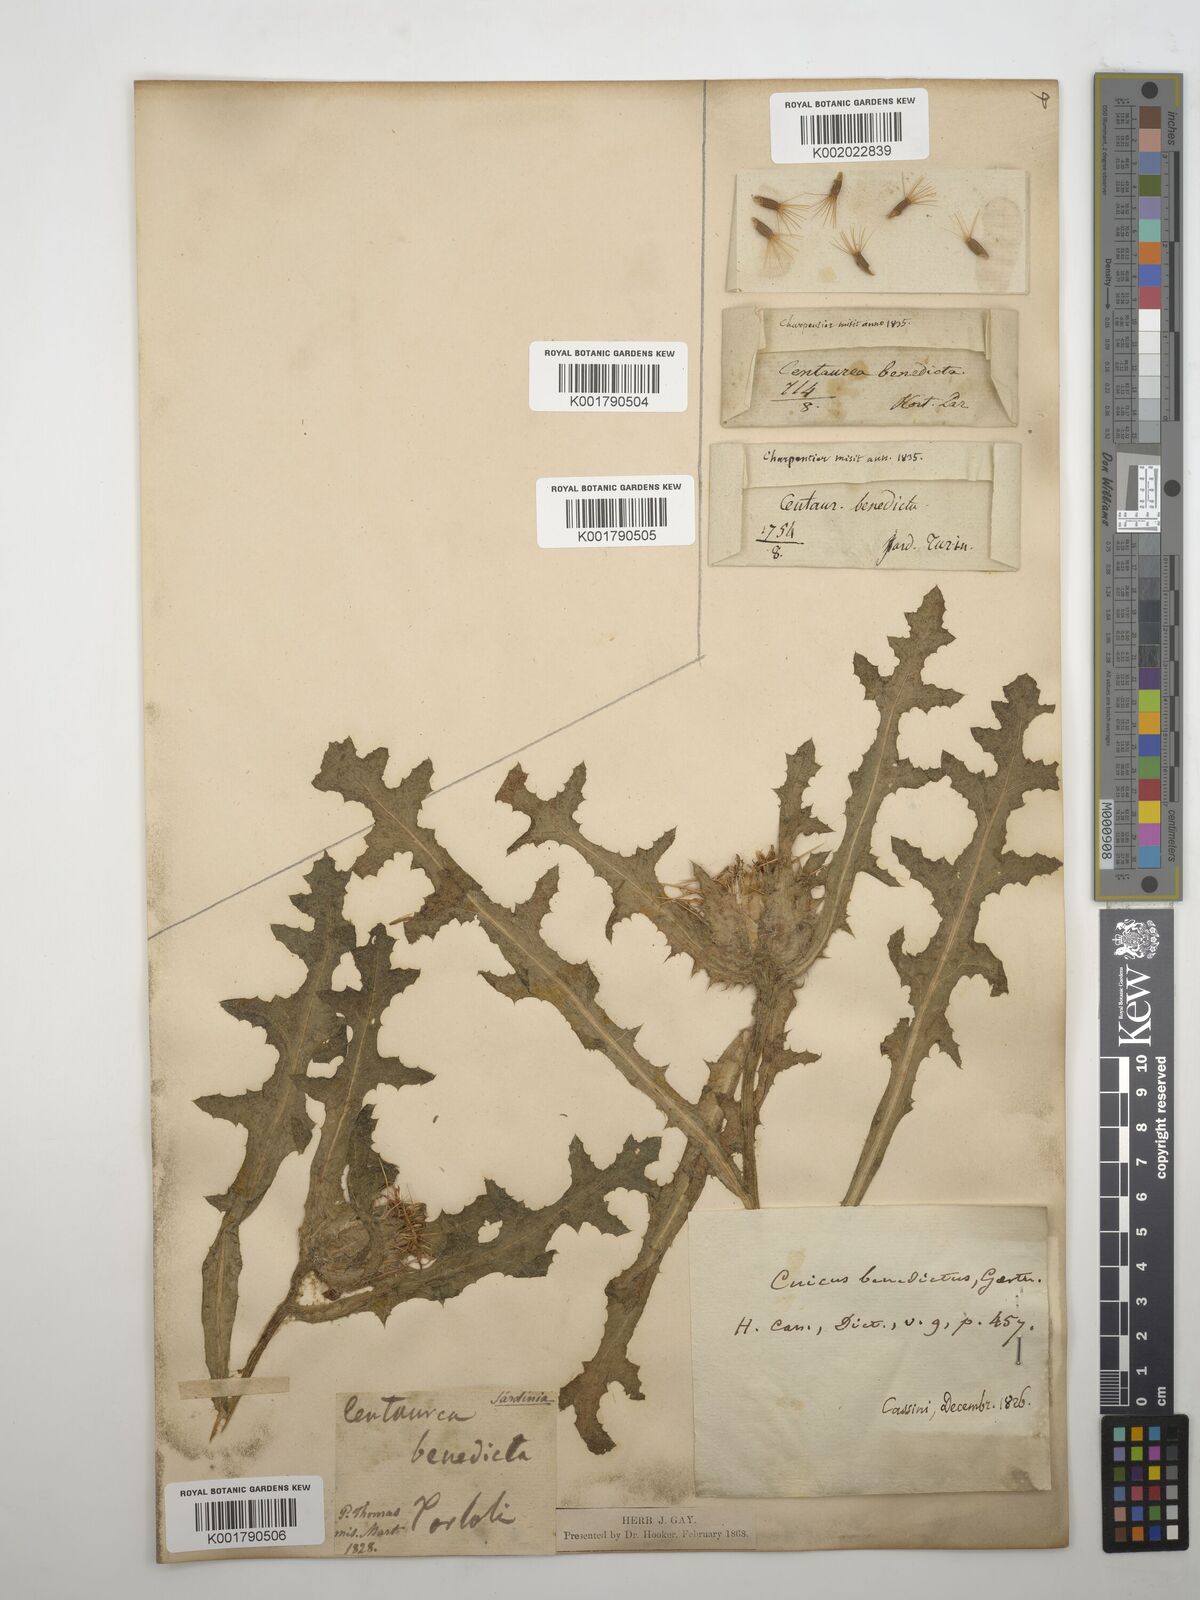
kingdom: Plantae
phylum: Tracheophyta
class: Magnoliopsida
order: Asterales
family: Asteraceae
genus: Centaurea
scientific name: Centaurea benedicta
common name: Blessed thistle
